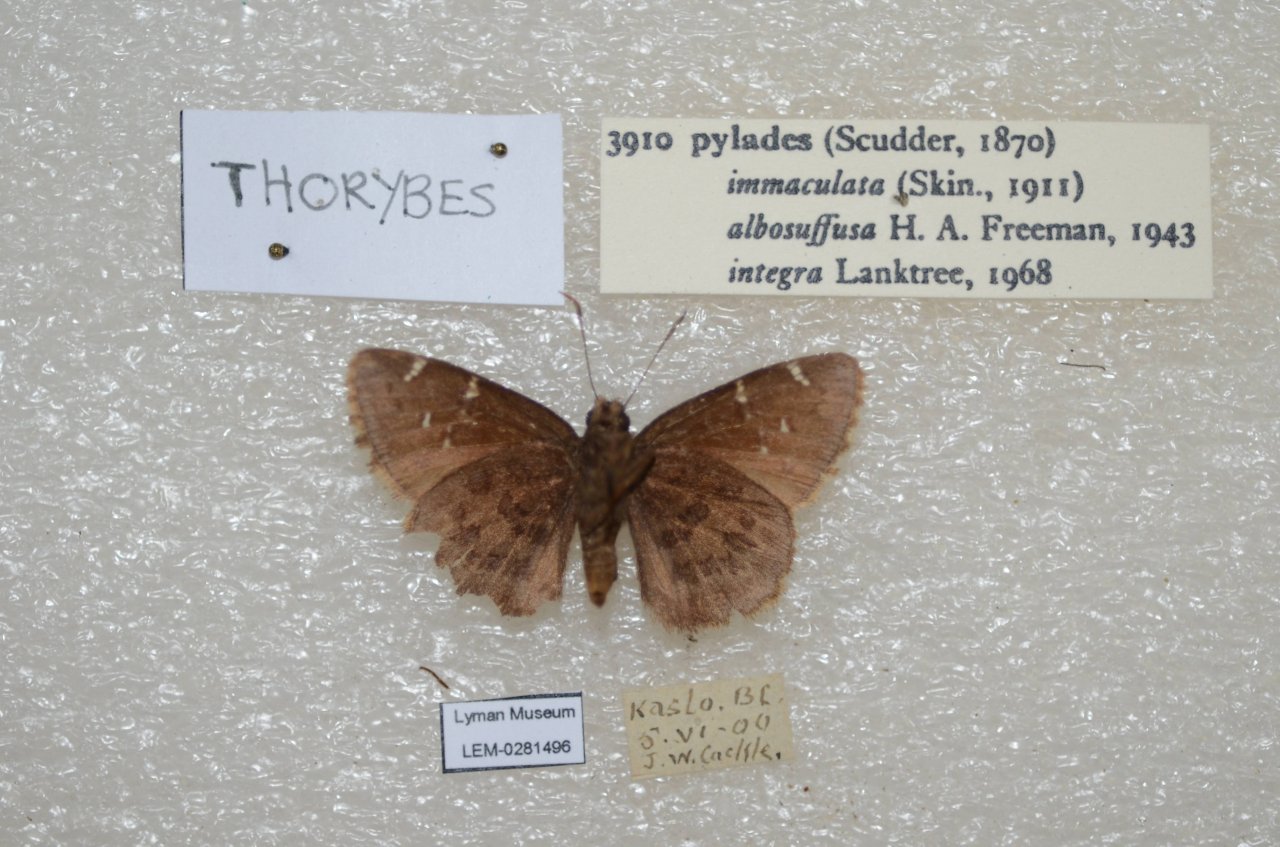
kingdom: Animalia
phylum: Arthropoda
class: Insecta
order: Lepidoptera
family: Hesperiidae
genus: Autochton
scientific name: Autochton
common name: Northern Cloudywing
